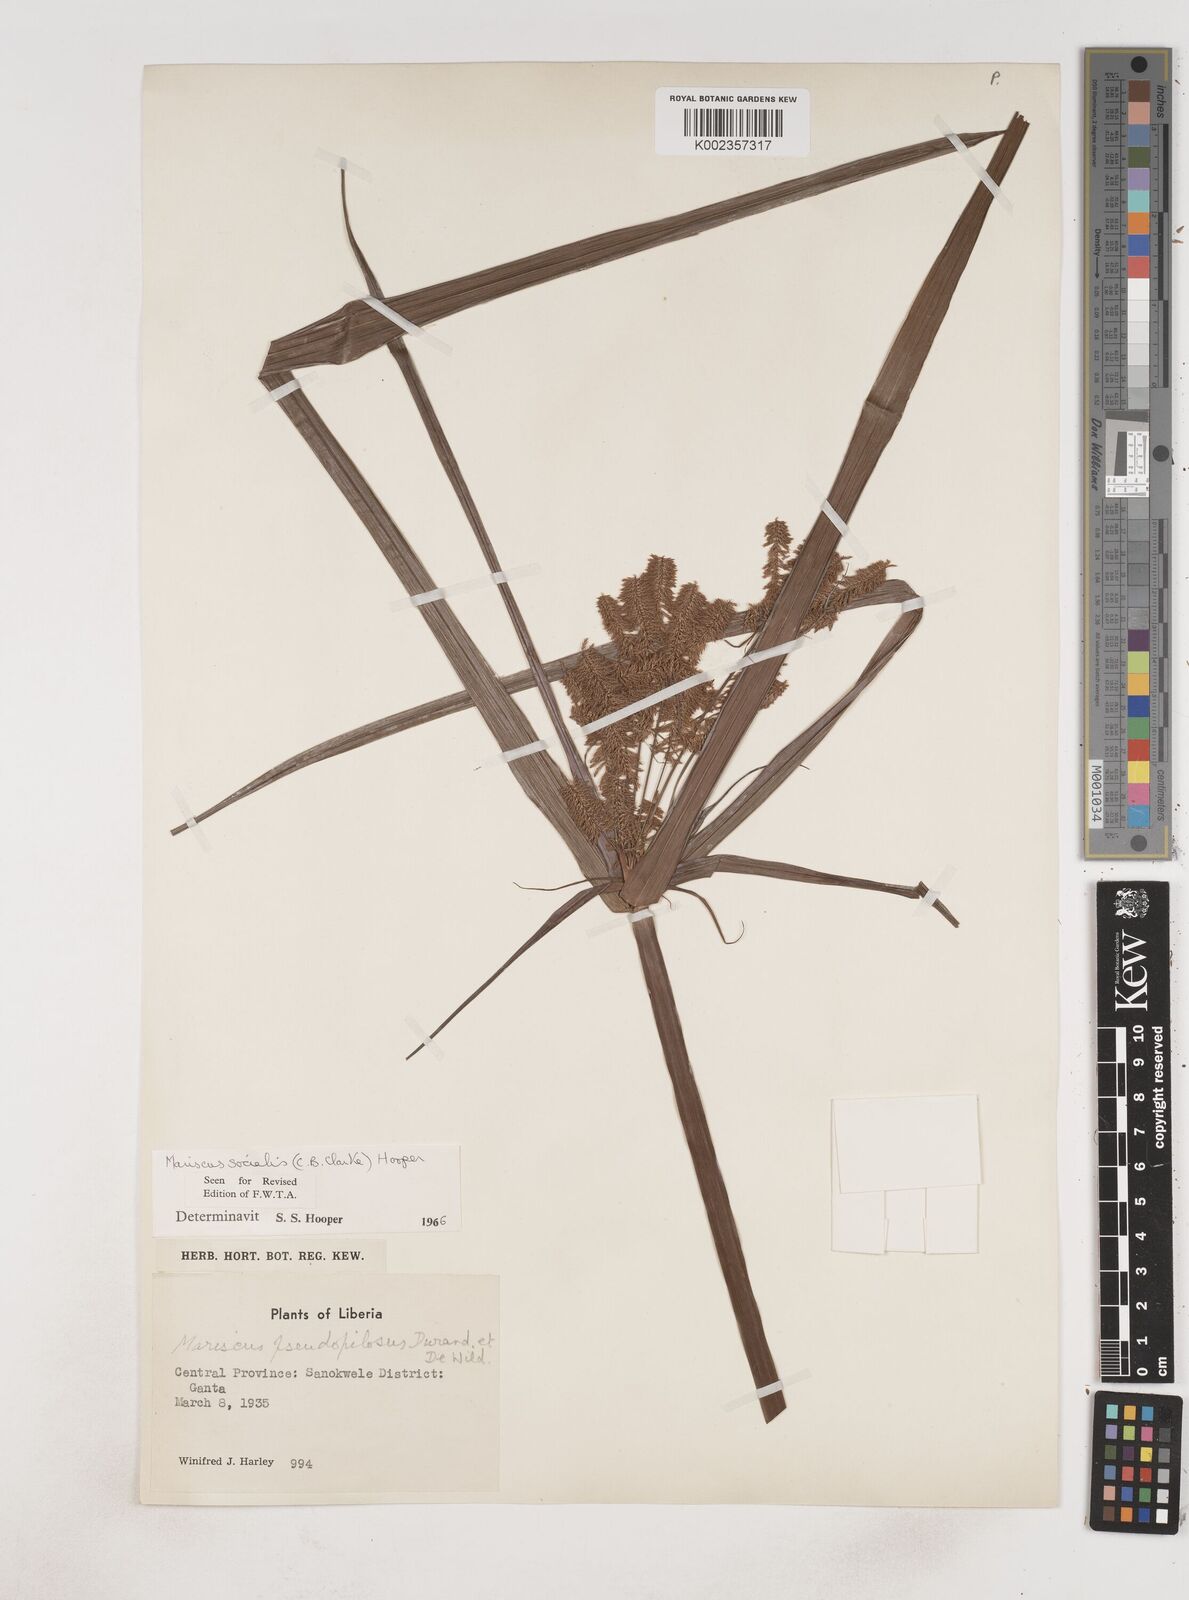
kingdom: Plantae
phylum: Tracheophyta
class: Liliopsida
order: Poales
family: Cyperaceae
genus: Cyperus
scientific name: Cyperus pseudopilosus
